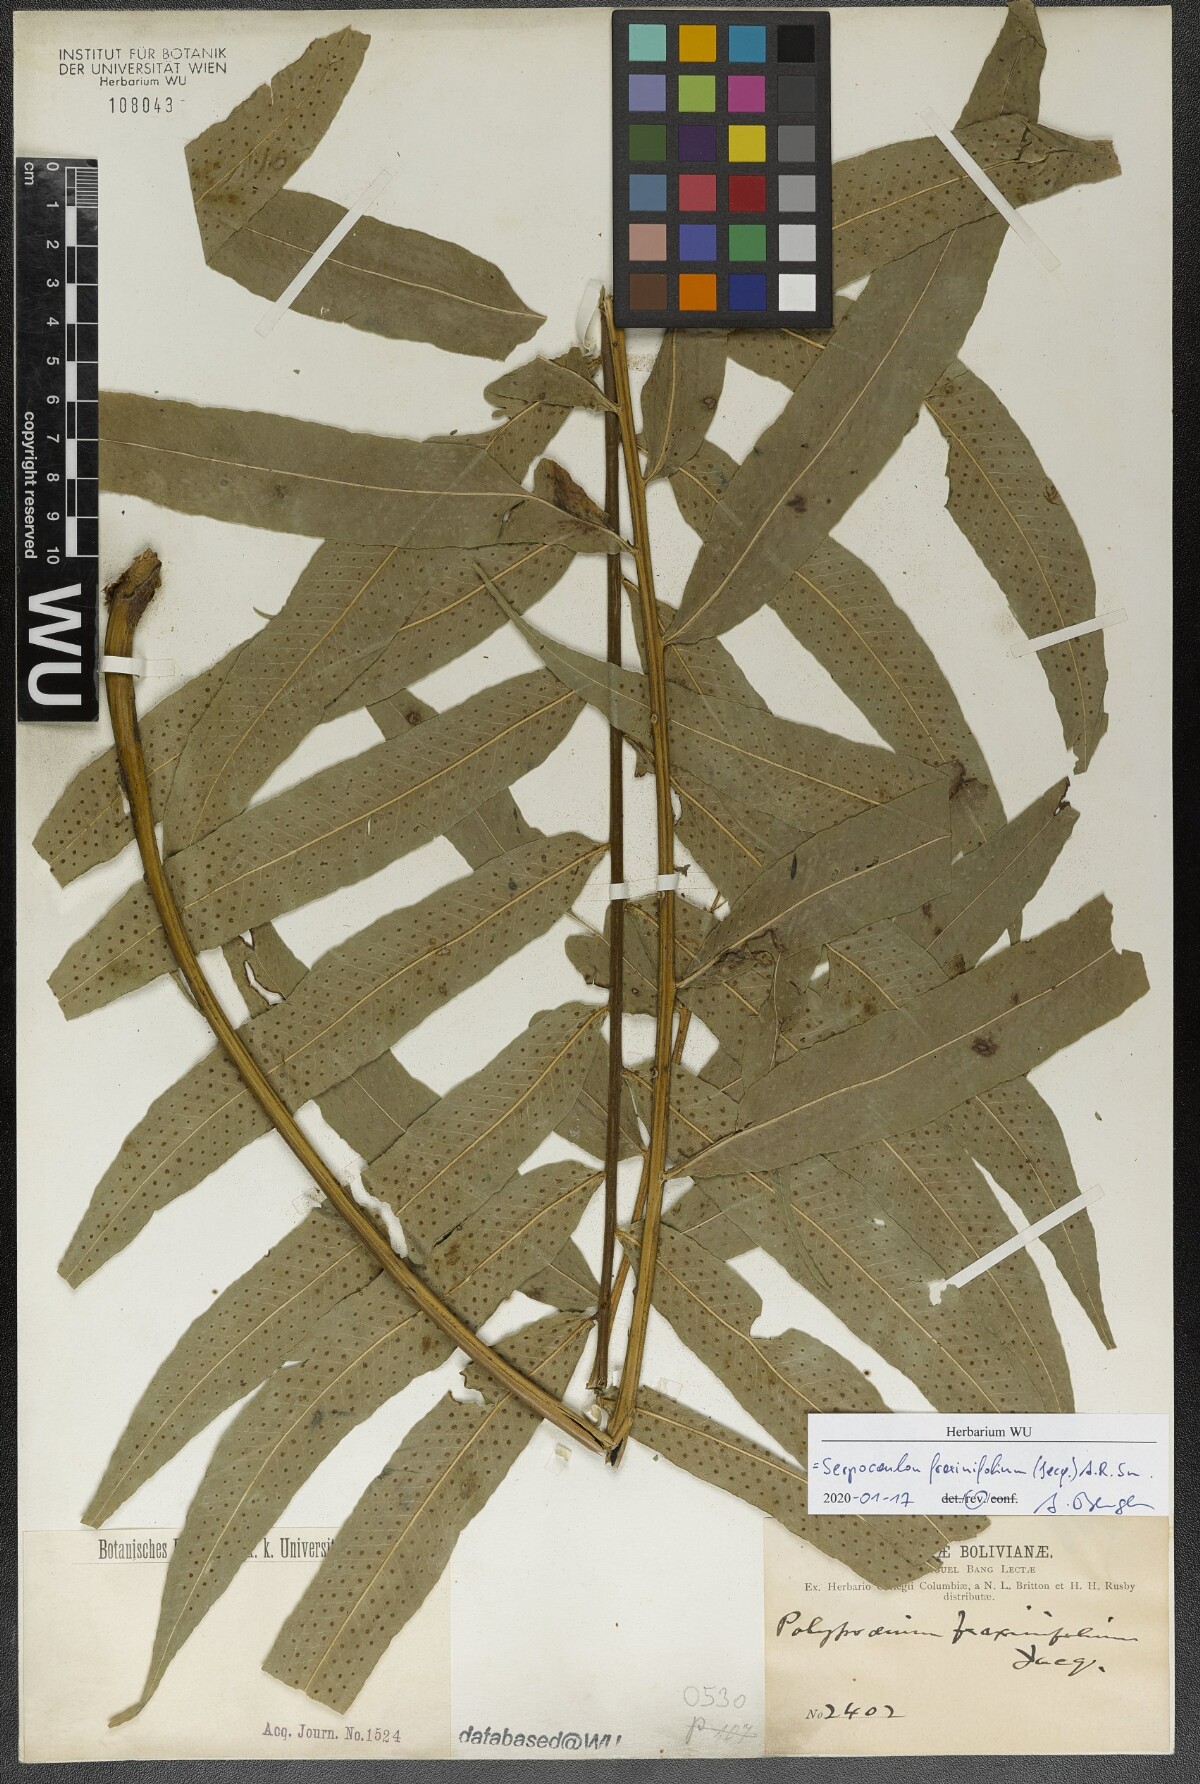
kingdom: Plantae
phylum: Tracheophyta
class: Polypodiopsida
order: Polypodiales
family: Polypodiaceae
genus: Serpocaulon
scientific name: Serpocaulon fraxinifolium
